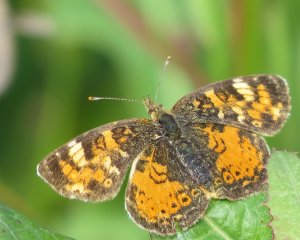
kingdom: Animalia
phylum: Arthropoda
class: Insecta
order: Lepidoptera
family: Nymphalidae
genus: Phyciodes
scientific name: Phyciodes tharos
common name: Northern Crescent
